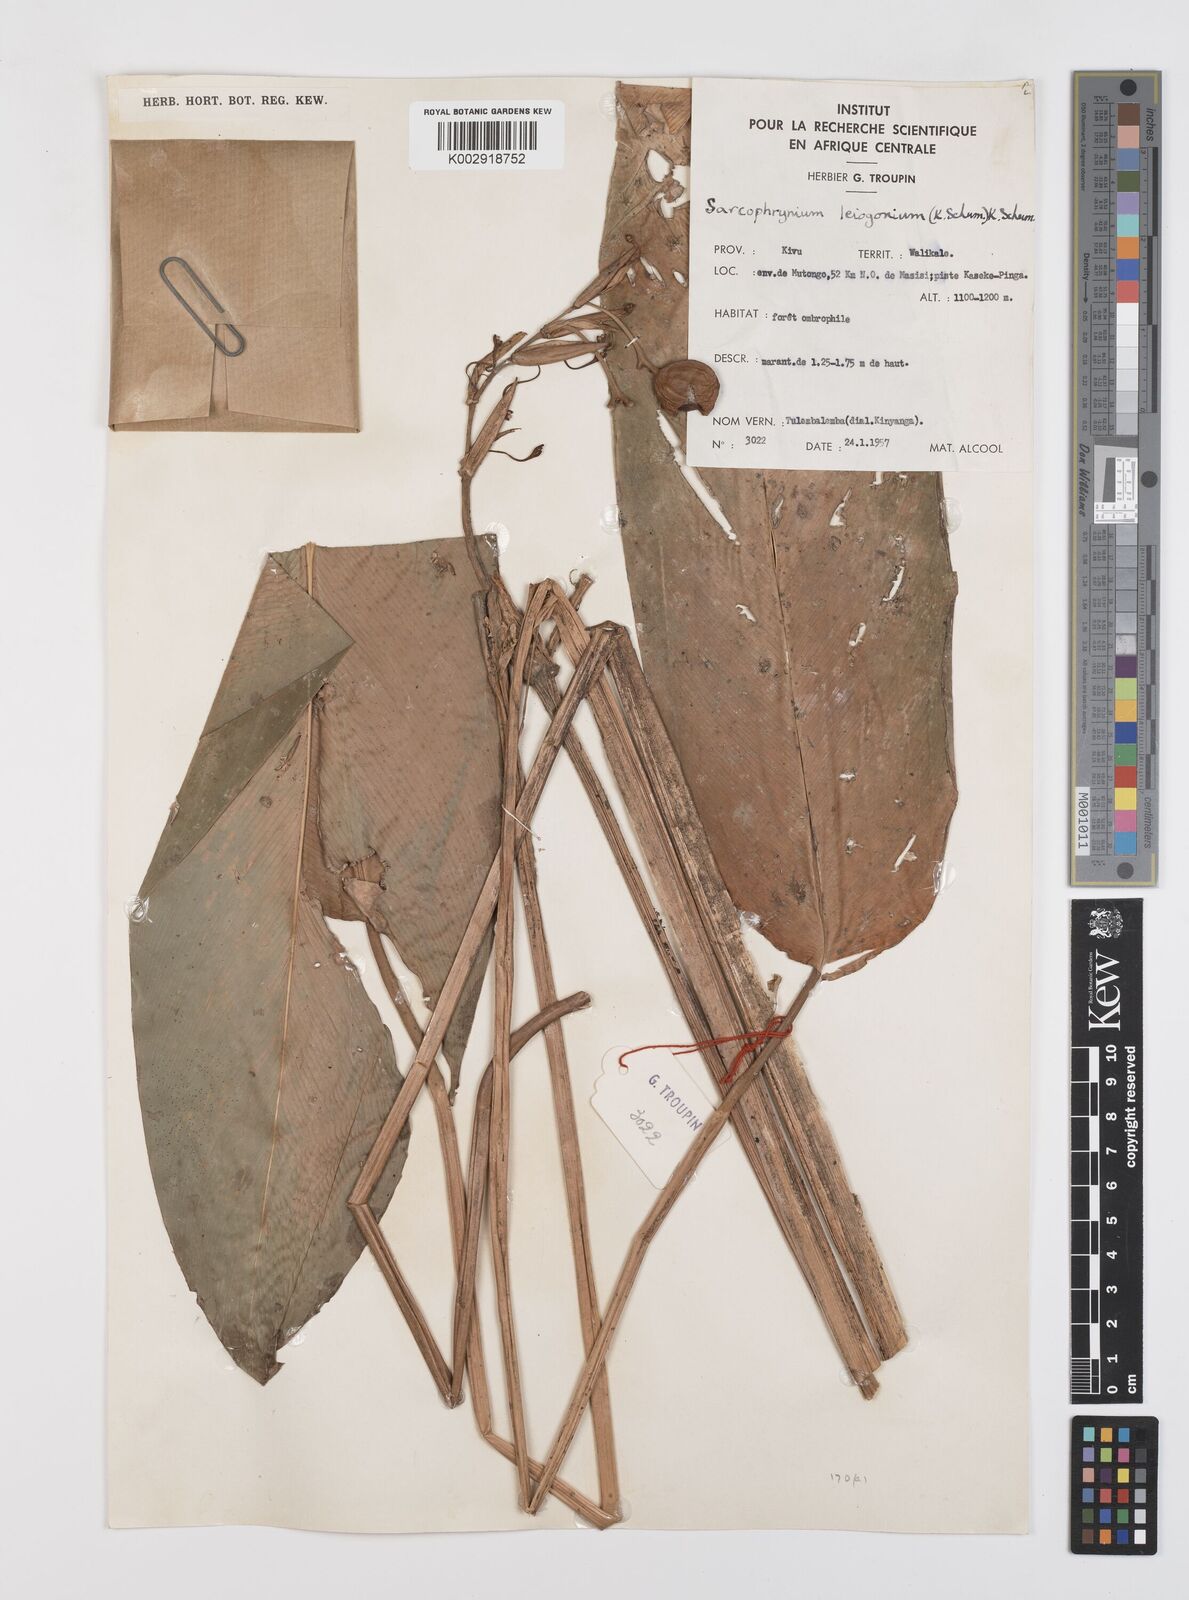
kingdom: Plantae
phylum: Tracheophyta
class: Liliopsida
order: Zingiberales
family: Marantaceae
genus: Sarcophrynium
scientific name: Sarcophrynium prionogonium
